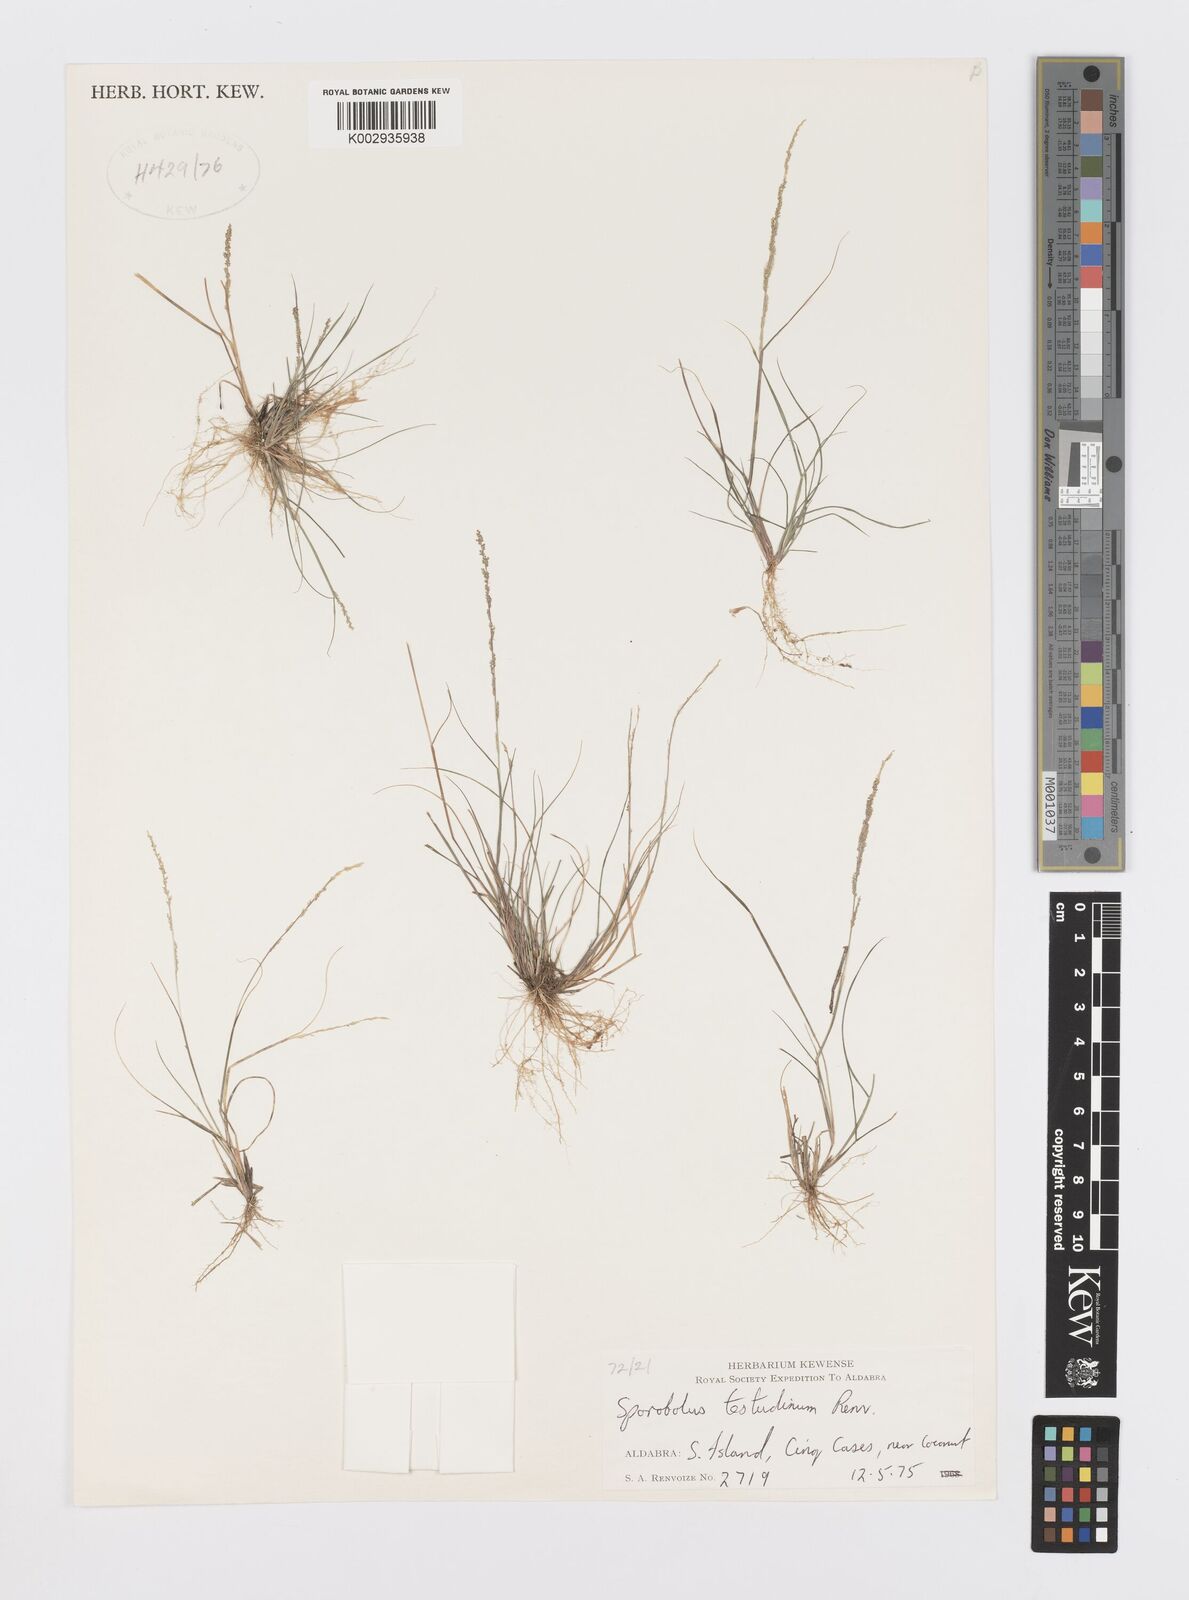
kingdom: Plantae
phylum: Tracheophyta
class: Liliopsida
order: Poales
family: Poaceae
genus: Sporobolus
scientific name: Sporobolus testudinum
